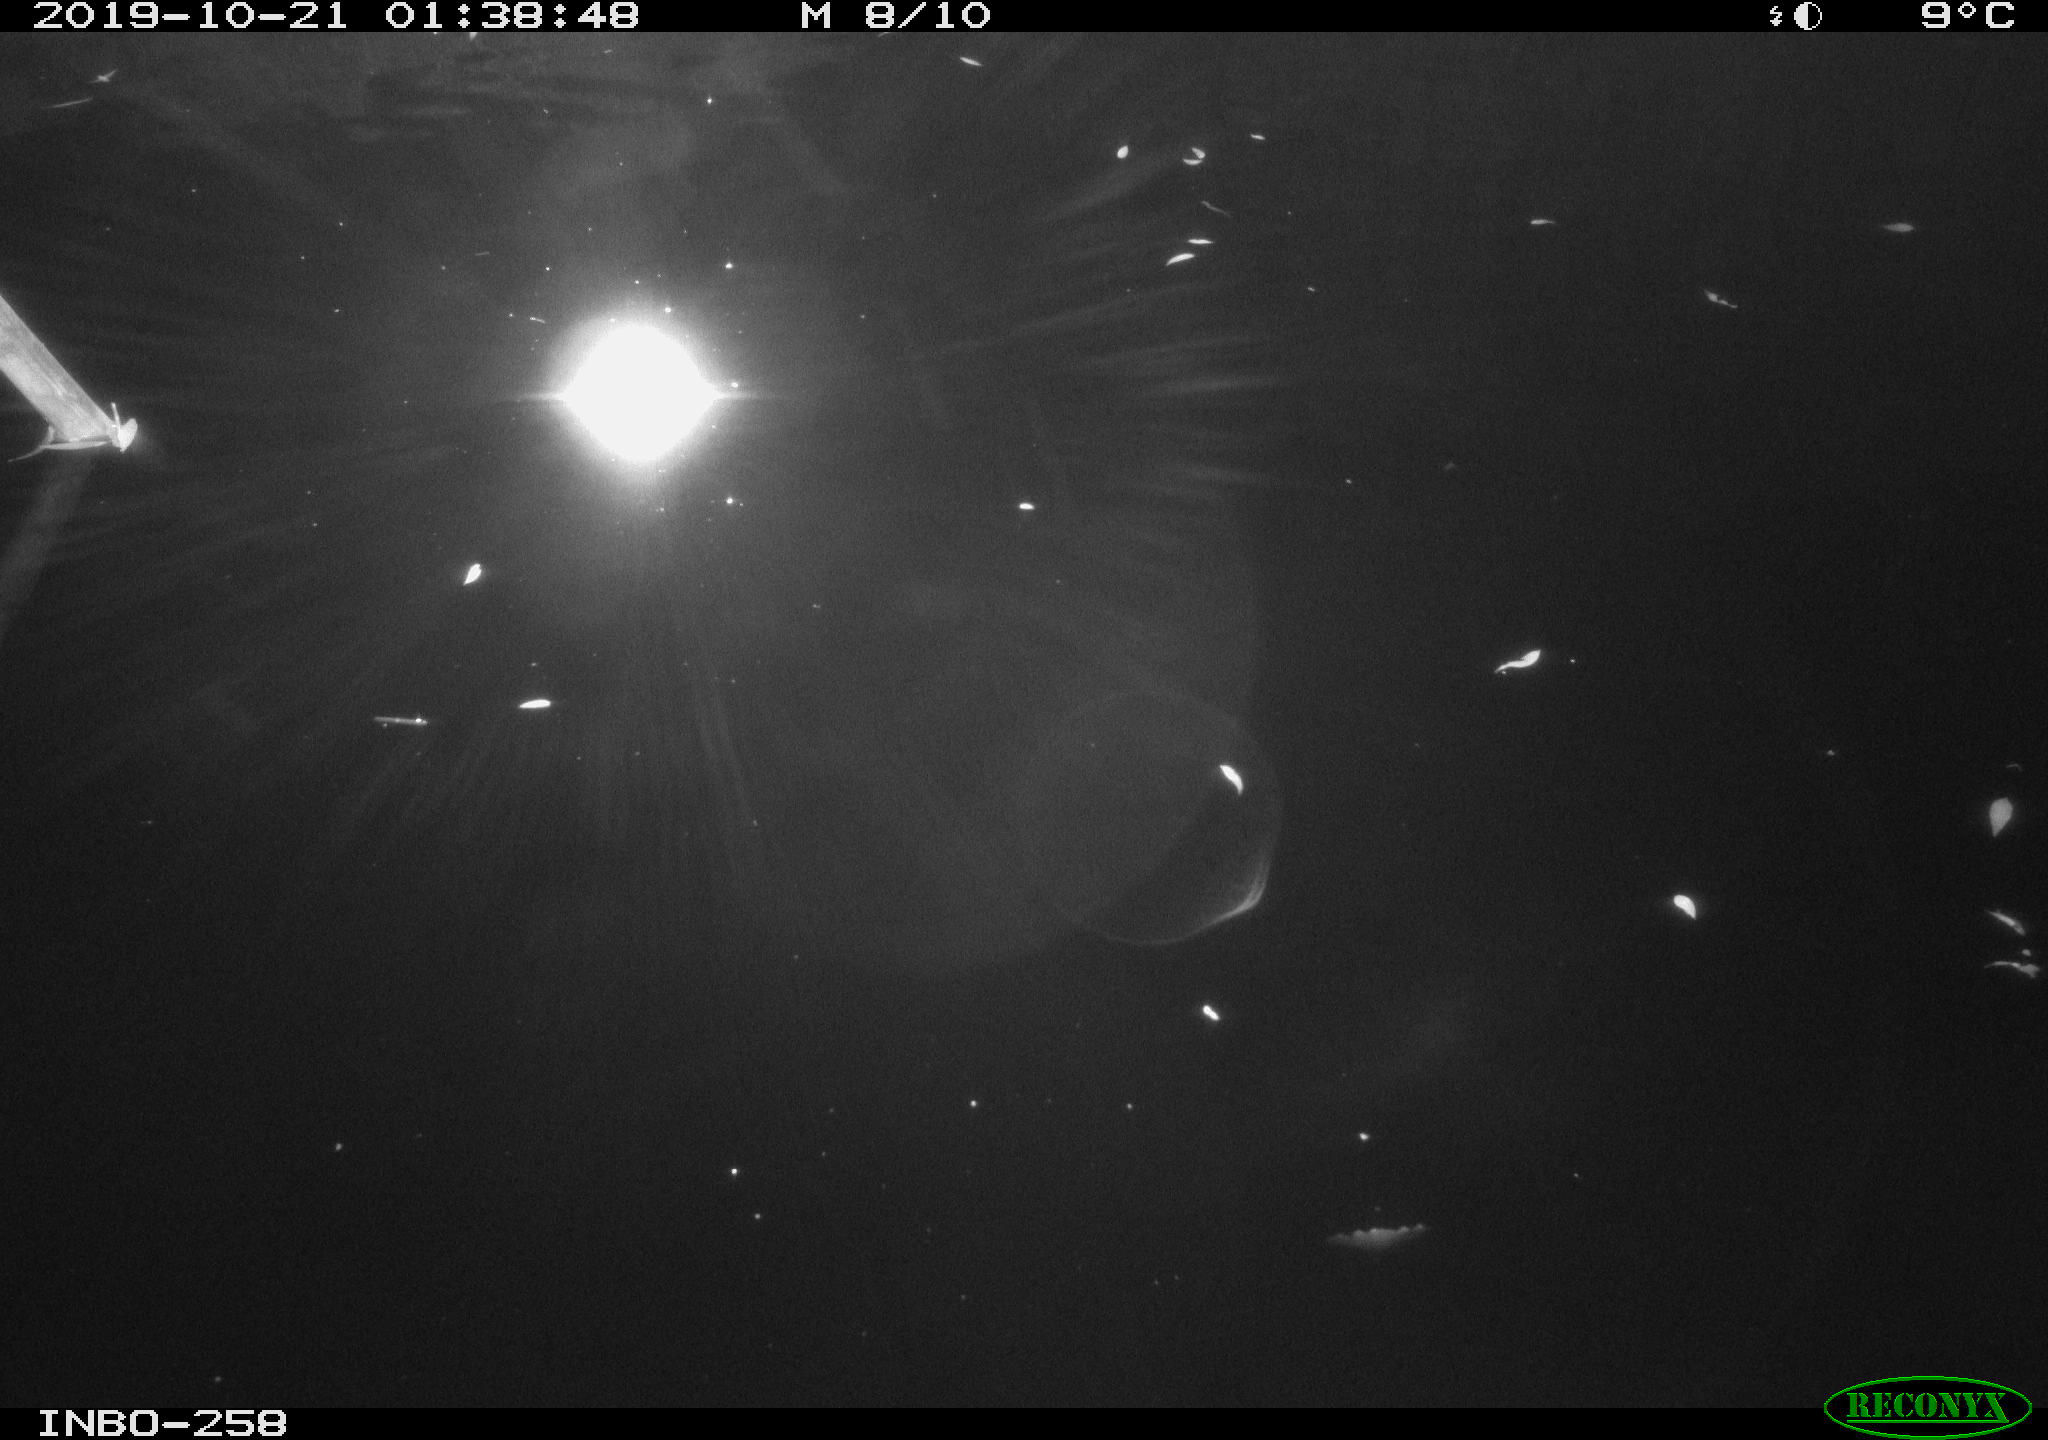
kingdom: Animalia
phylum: Chordata
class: Aves
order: Anseriformes
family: Anatidae
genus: Anas
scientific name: Anas platyrhynchos
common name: Mallard
